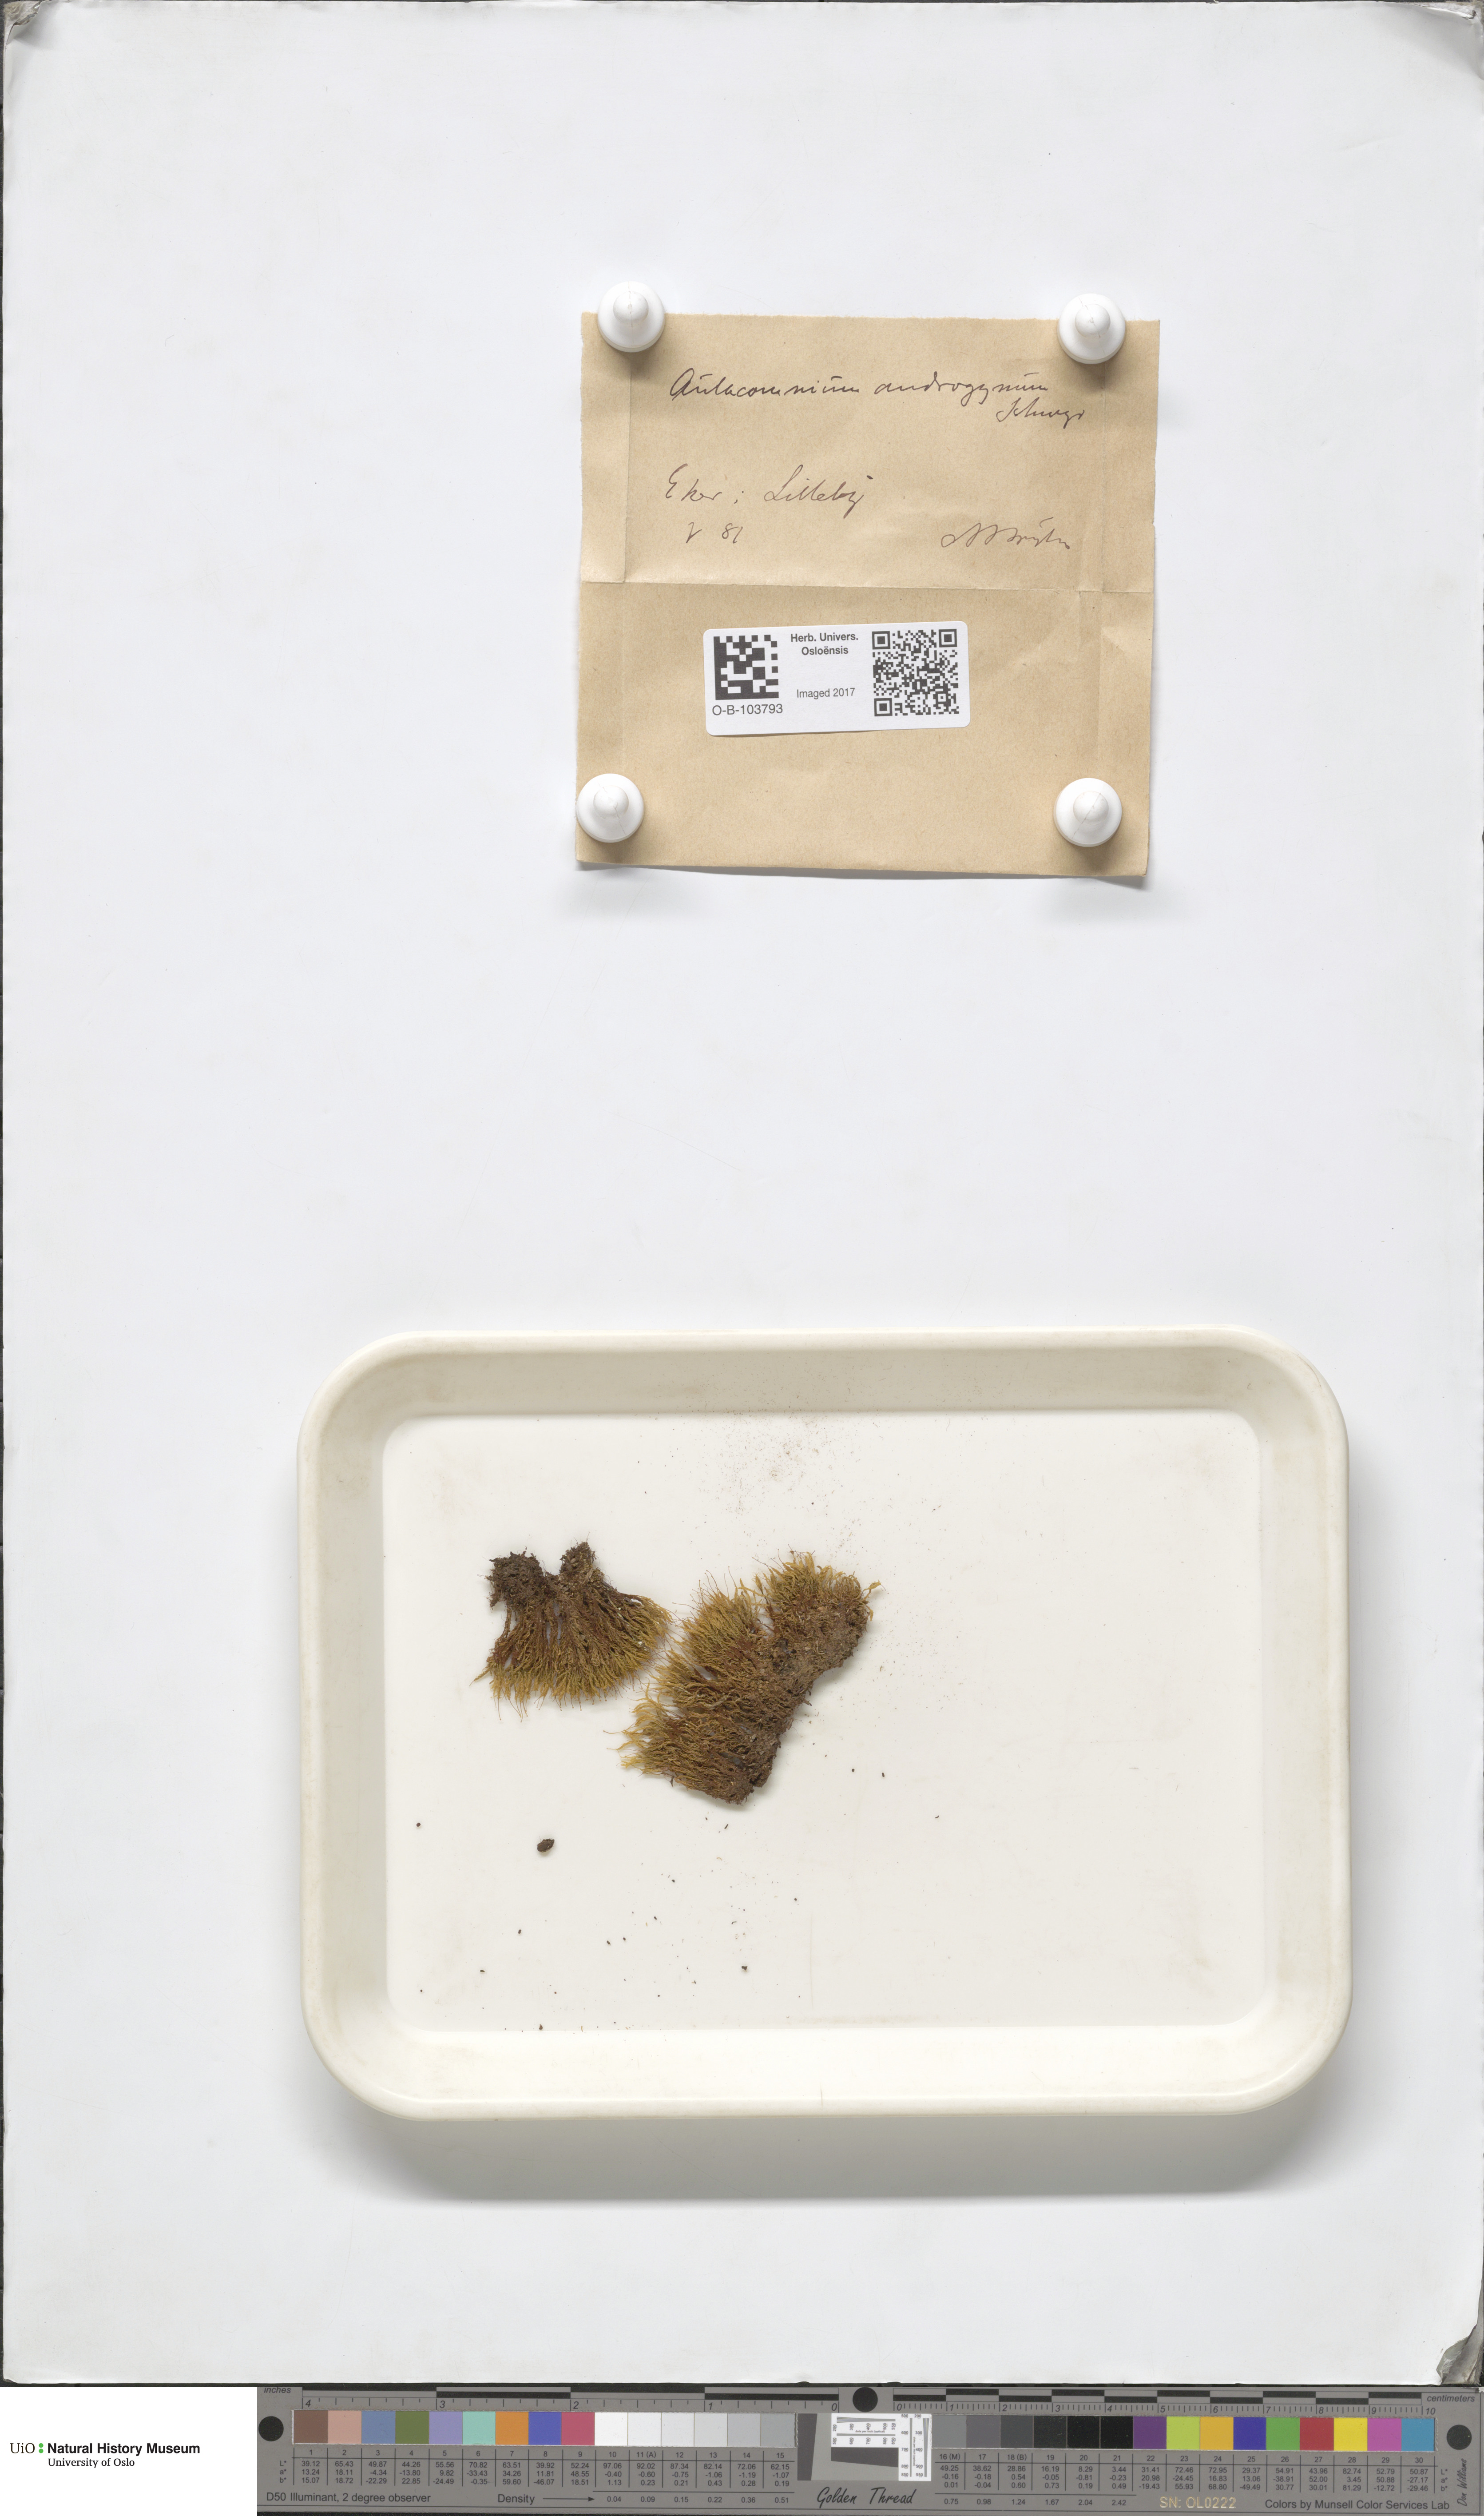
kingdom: Plantae
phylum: Bryophyta
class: Bryopsida
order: Aulacomniales
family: Aulacomniaceae
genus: Aulacomnium
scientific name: Aulacomnium androgynum
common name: Little groove moss
